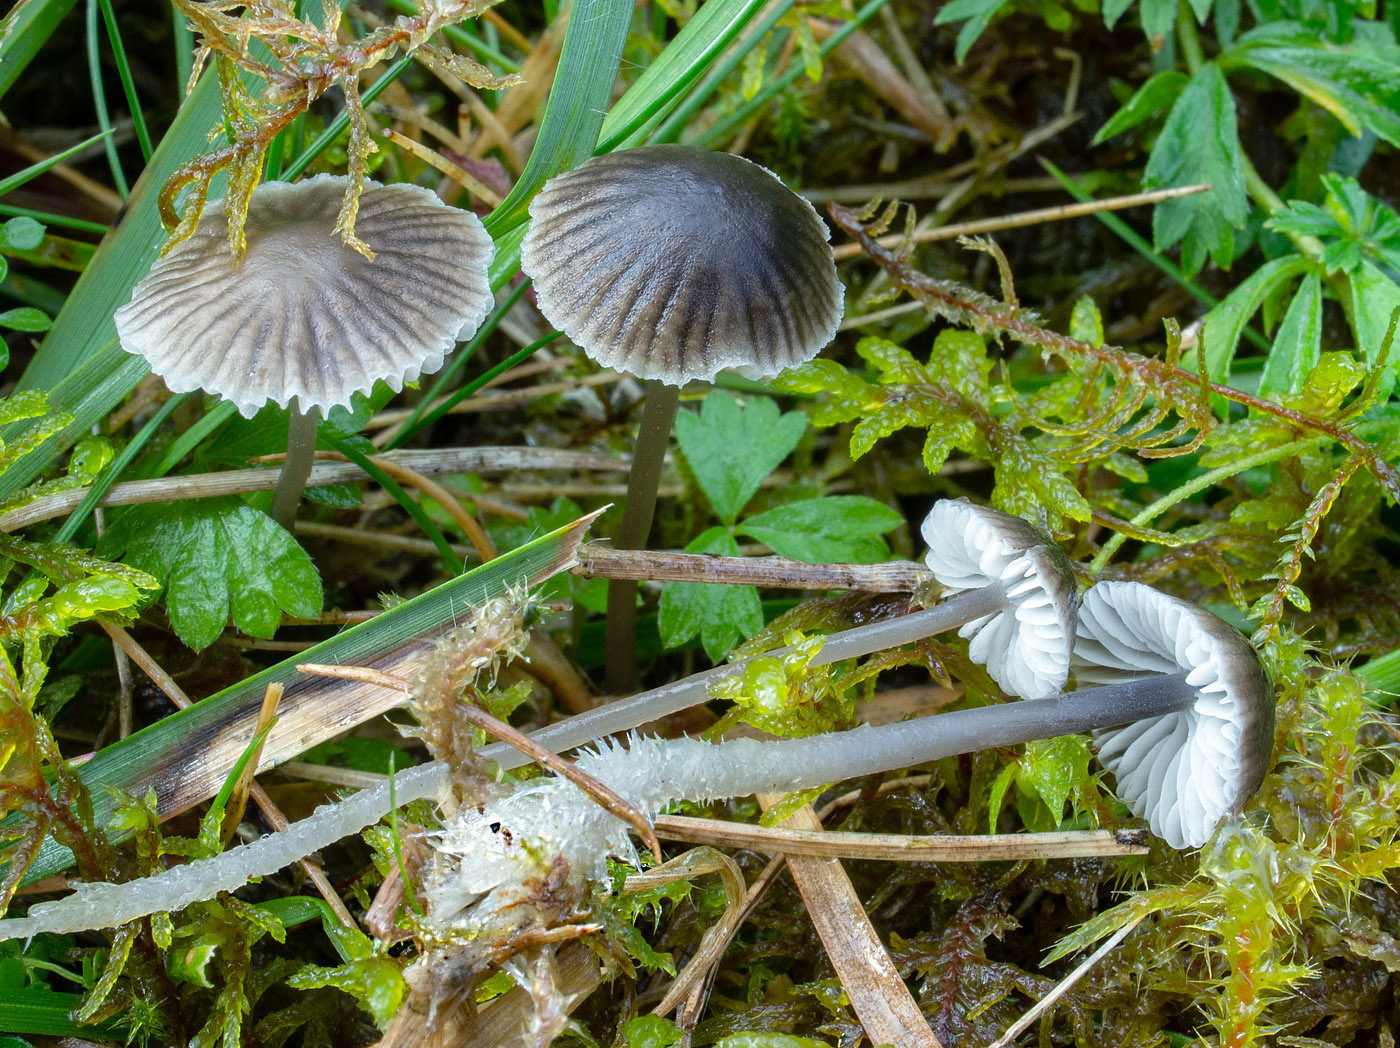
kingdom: Fungi
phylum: Basidiomycota
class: Agaricomycetes
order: Agaricales
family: Mycenaceae
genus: Mycena
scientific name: Mycena latifolia
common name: bredbladet huesvamp
